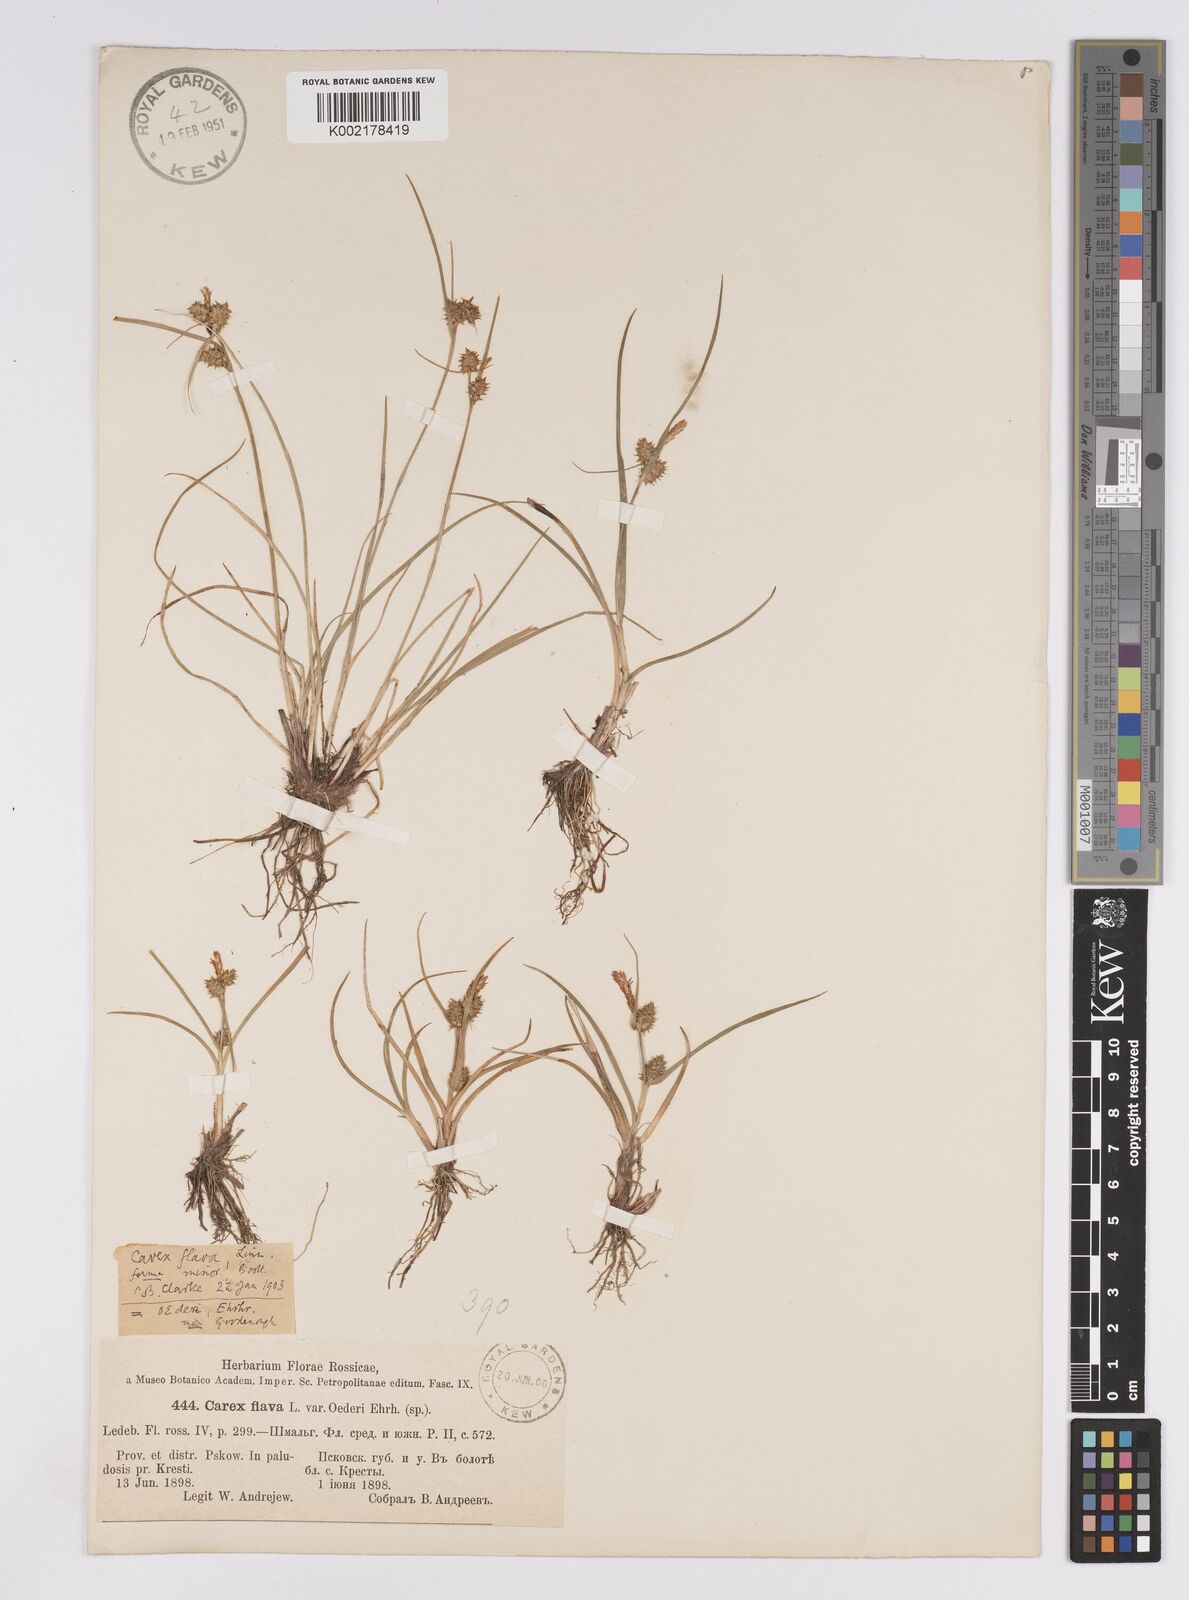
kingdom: Plantae
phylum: Tracheophyta
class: Liliopsida
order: Poales
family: Cyperaceae
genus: Carex
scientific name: Carex demissa
